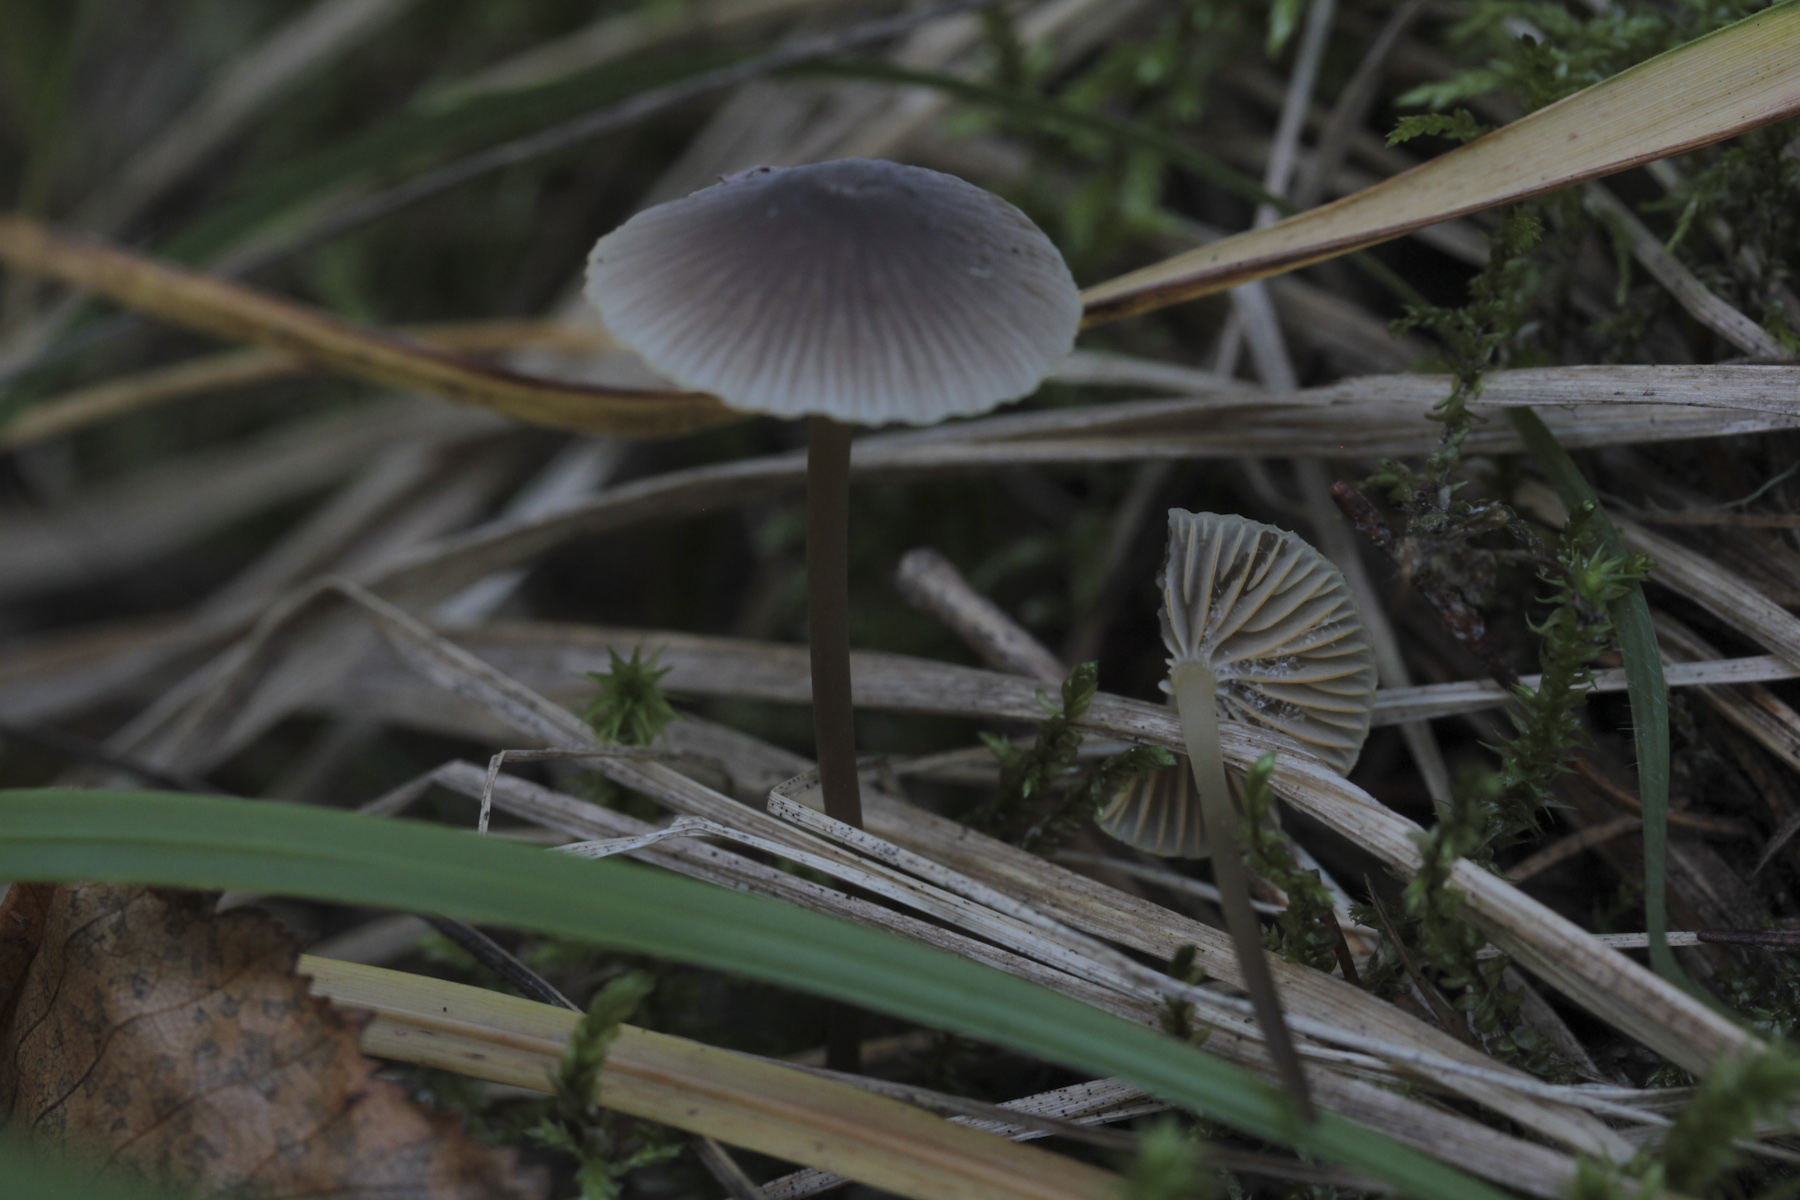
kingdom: Fungi
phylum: Basidiomycota
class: Agaricomycetes
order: Agaricales
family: Mycenaceae
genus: Mycena
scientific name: Mycena
